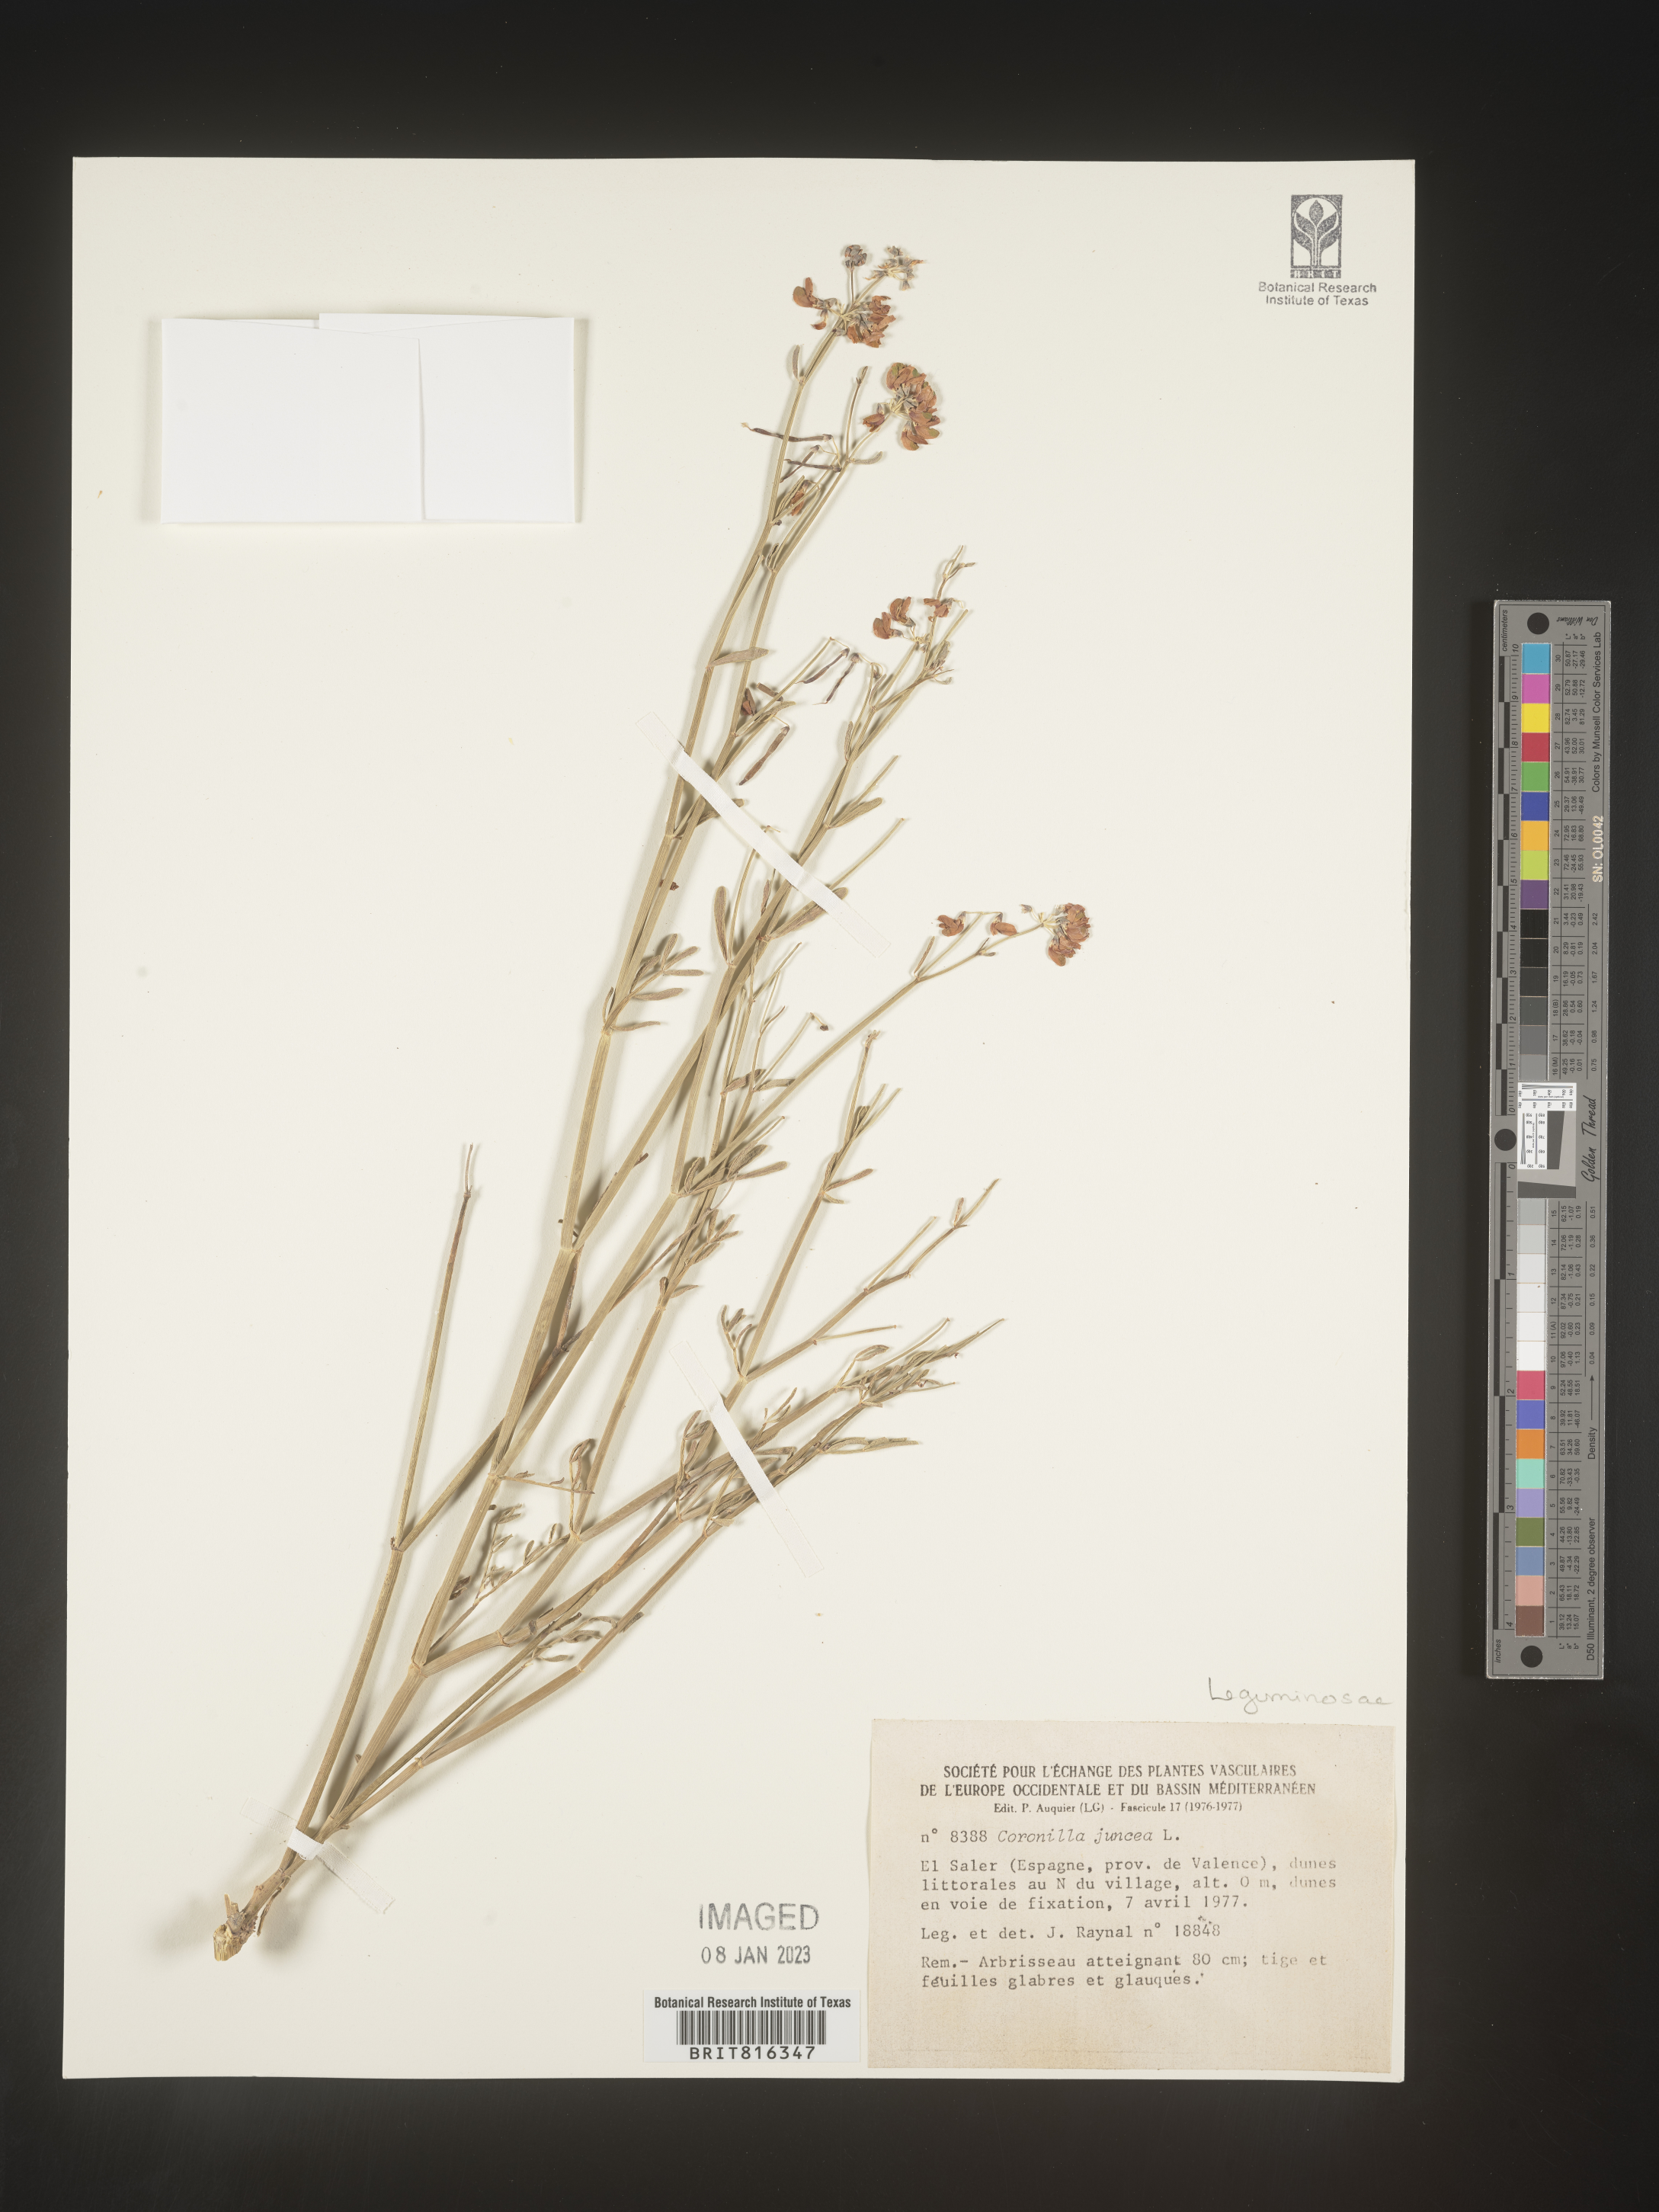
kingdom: Plantae
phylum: Tracheophyta
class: Magnoliopsida
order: Fabales
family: Fabaceae
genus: Coronilla
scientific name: Coronilla
